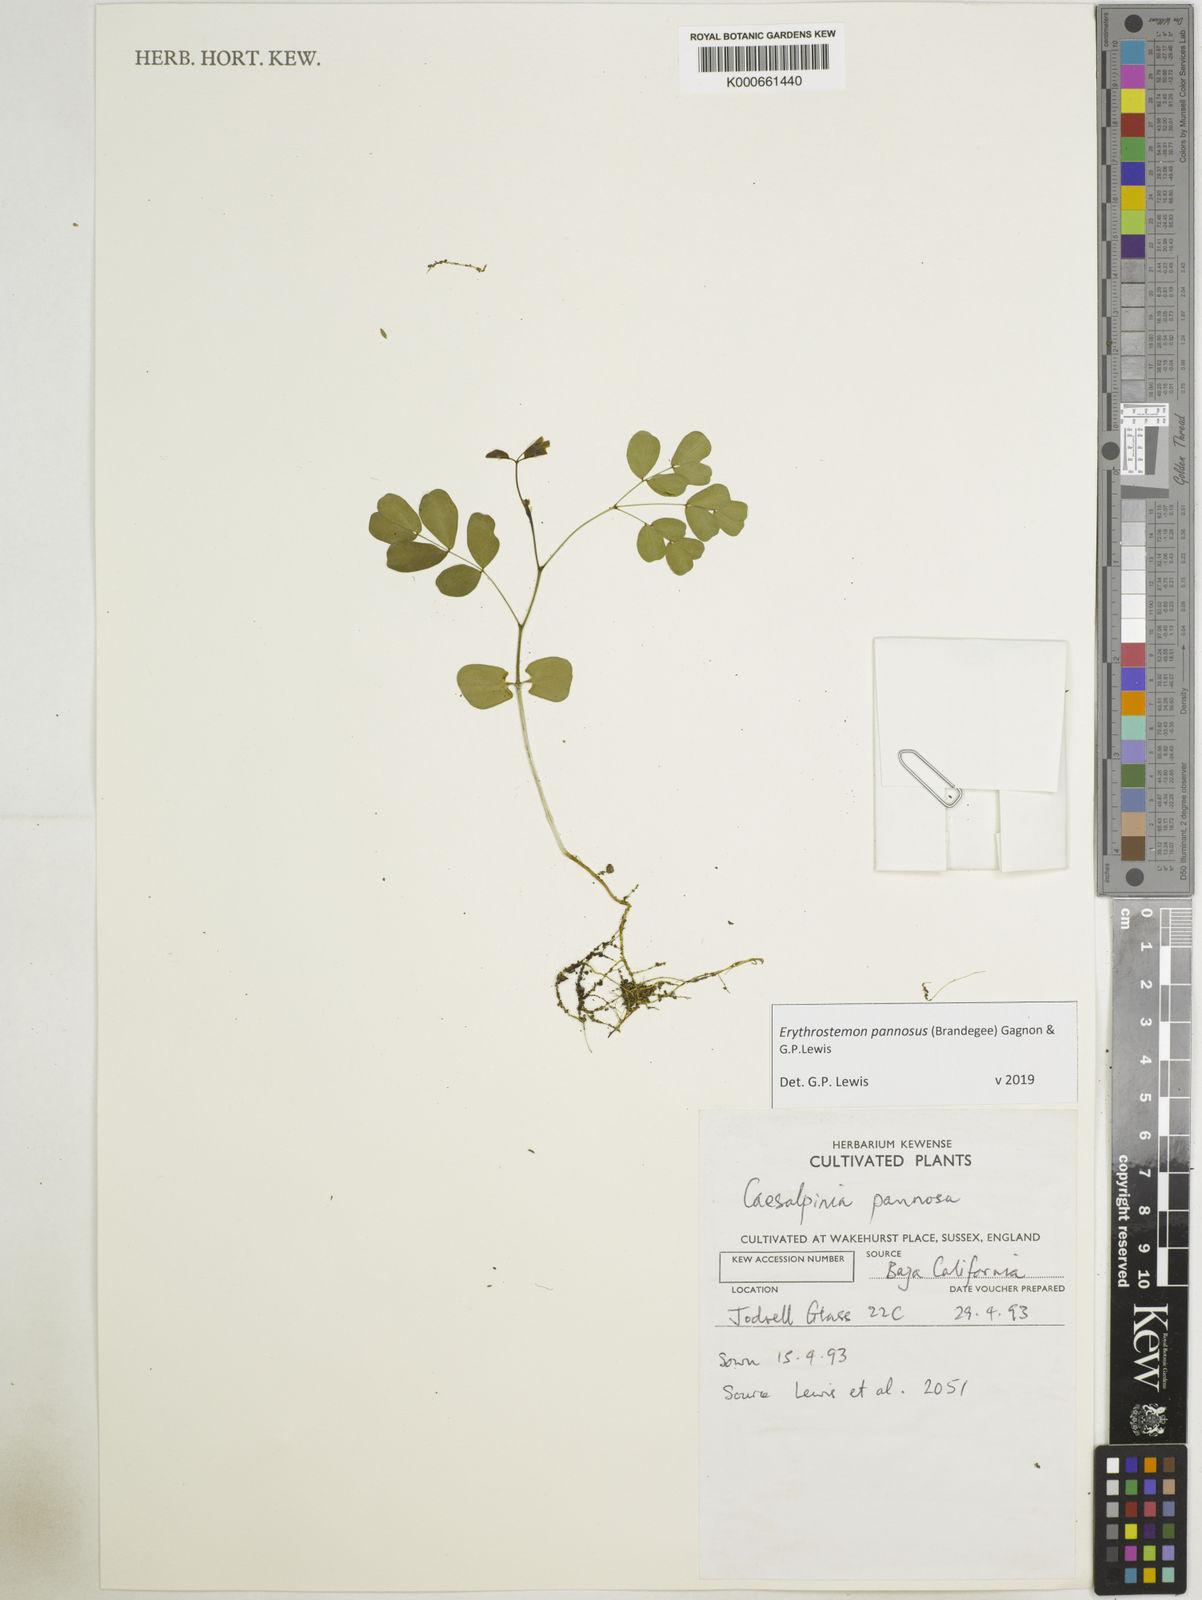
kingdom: Plantae
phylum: Tracheophyta
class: Magnoliopsida
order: Fabales
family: Fabaceae
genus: Erythrostemon
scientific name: Erythrostemon pannosus
